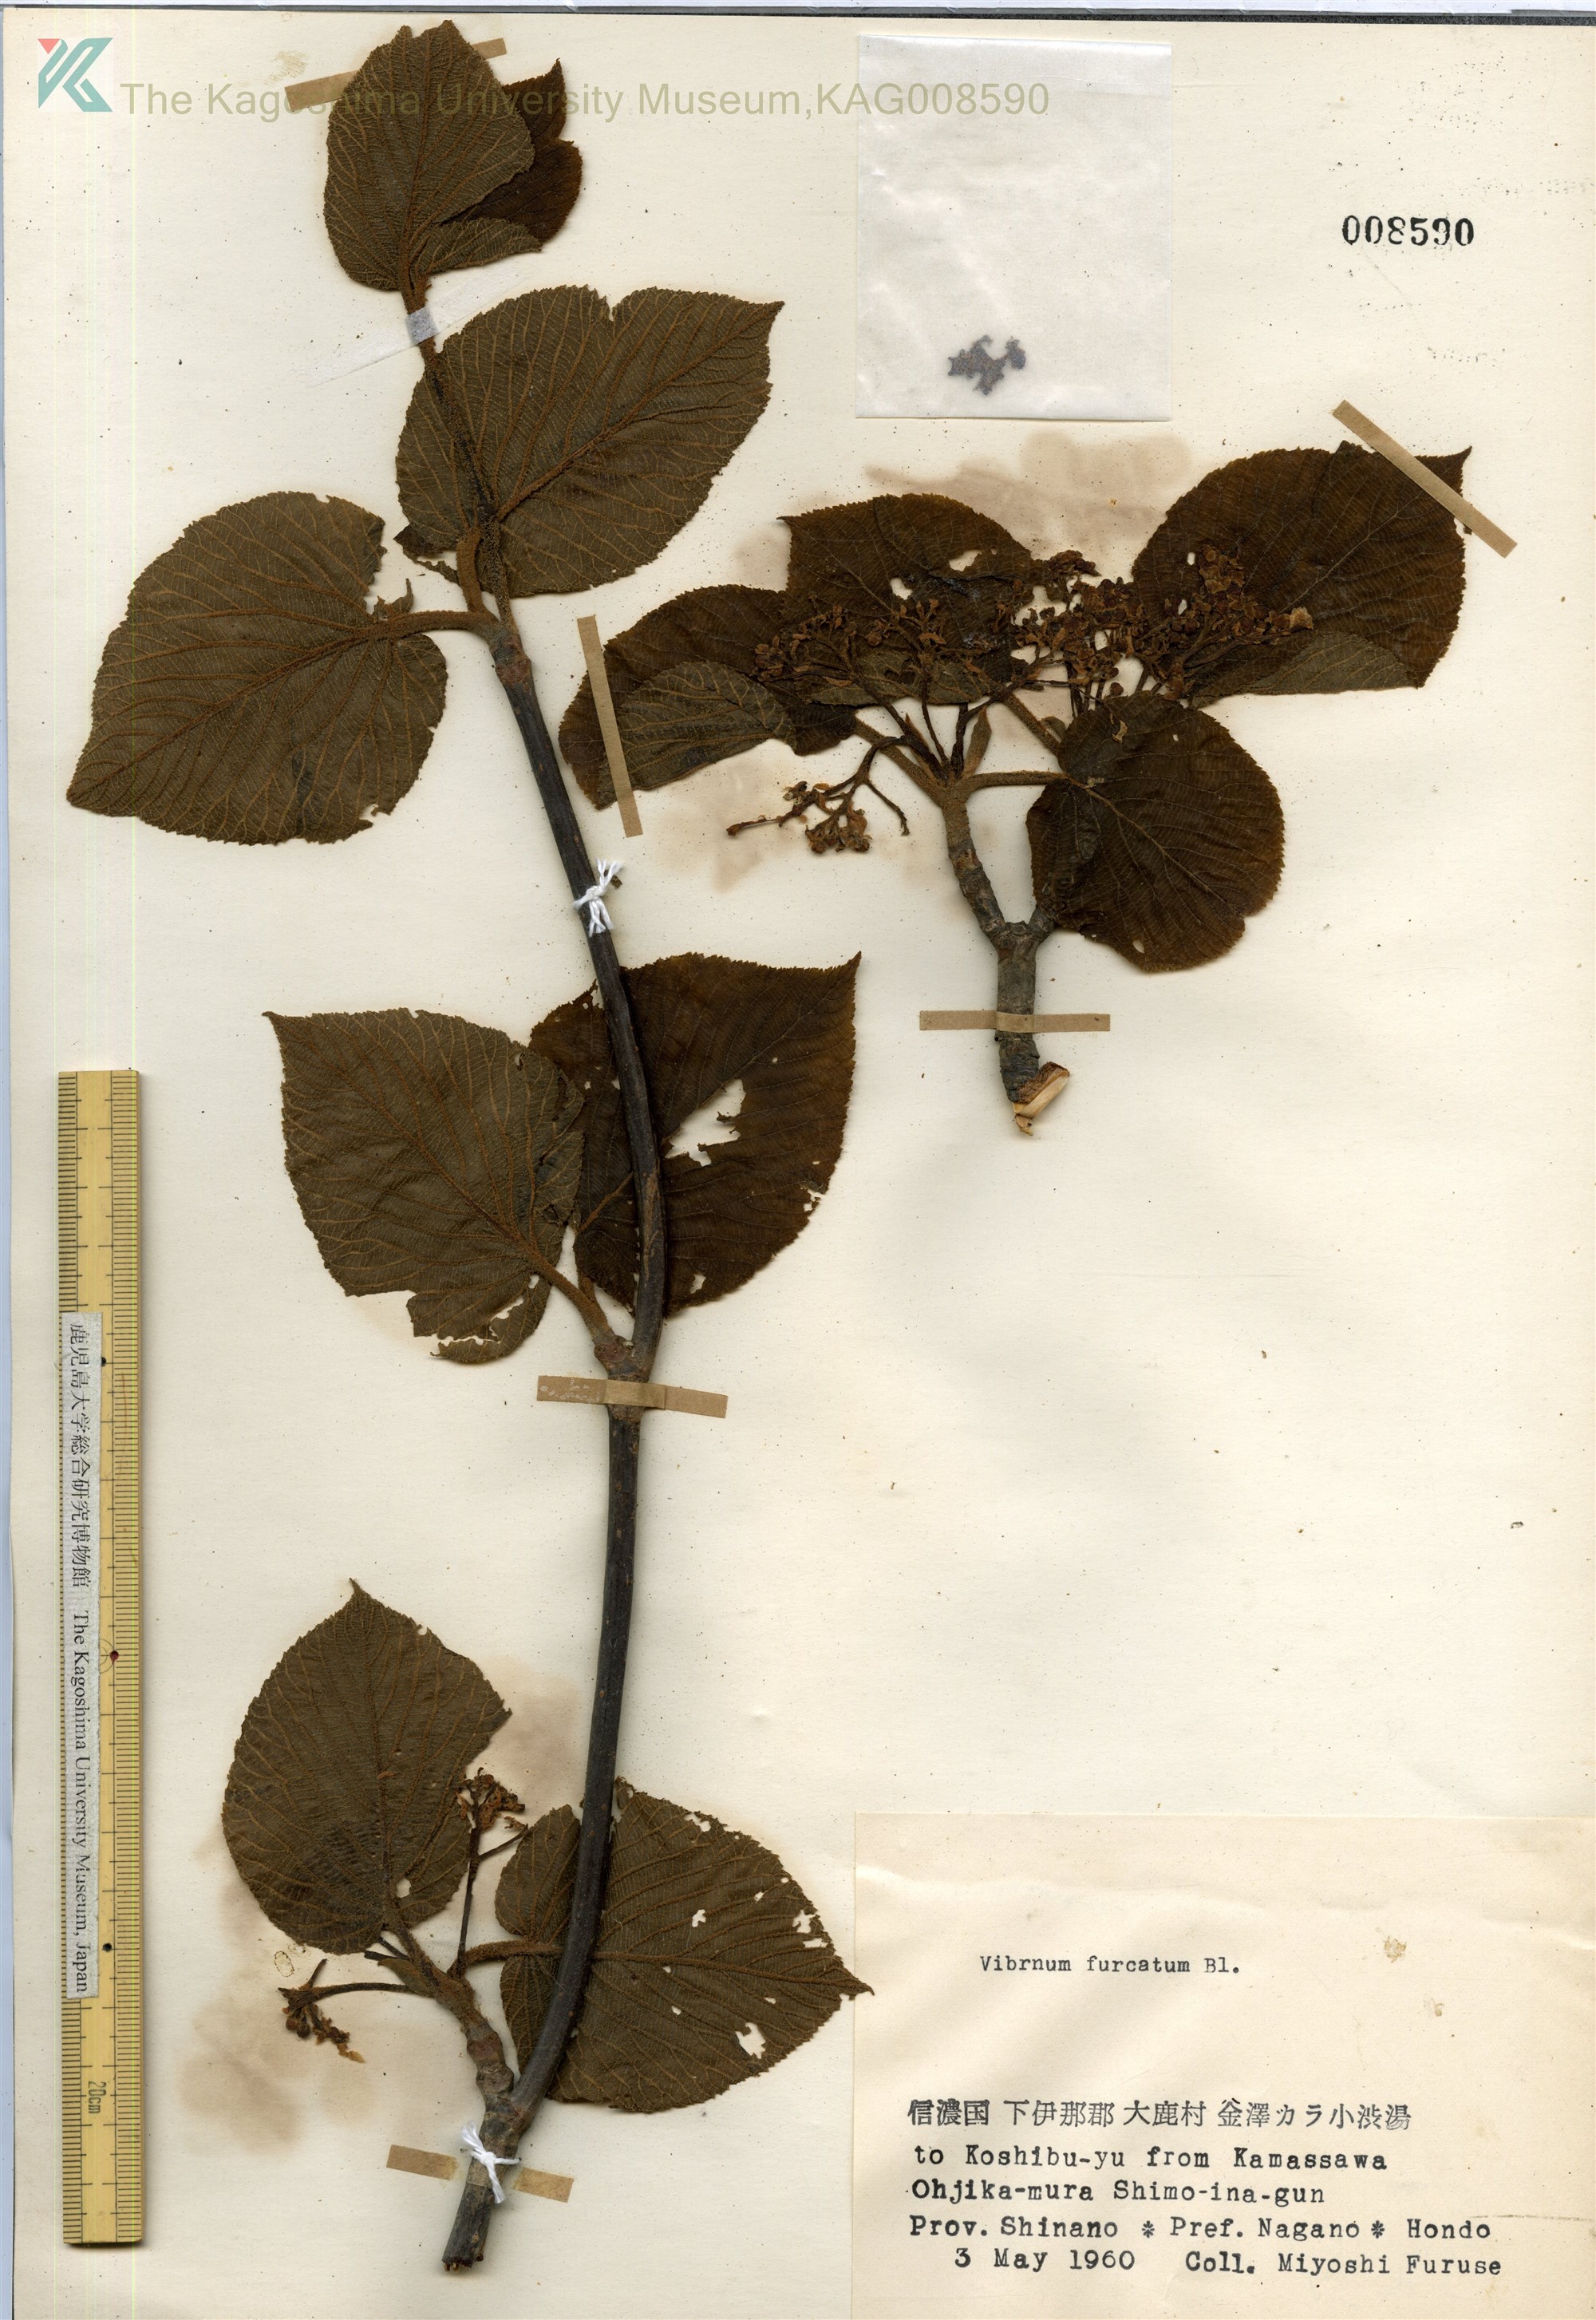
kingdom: Plantae
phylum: Tracheophyta
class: Magnoliopsida
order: Dipsacales
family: Viburnaceae
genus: Viburnum
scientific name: Viburnum furcatum
